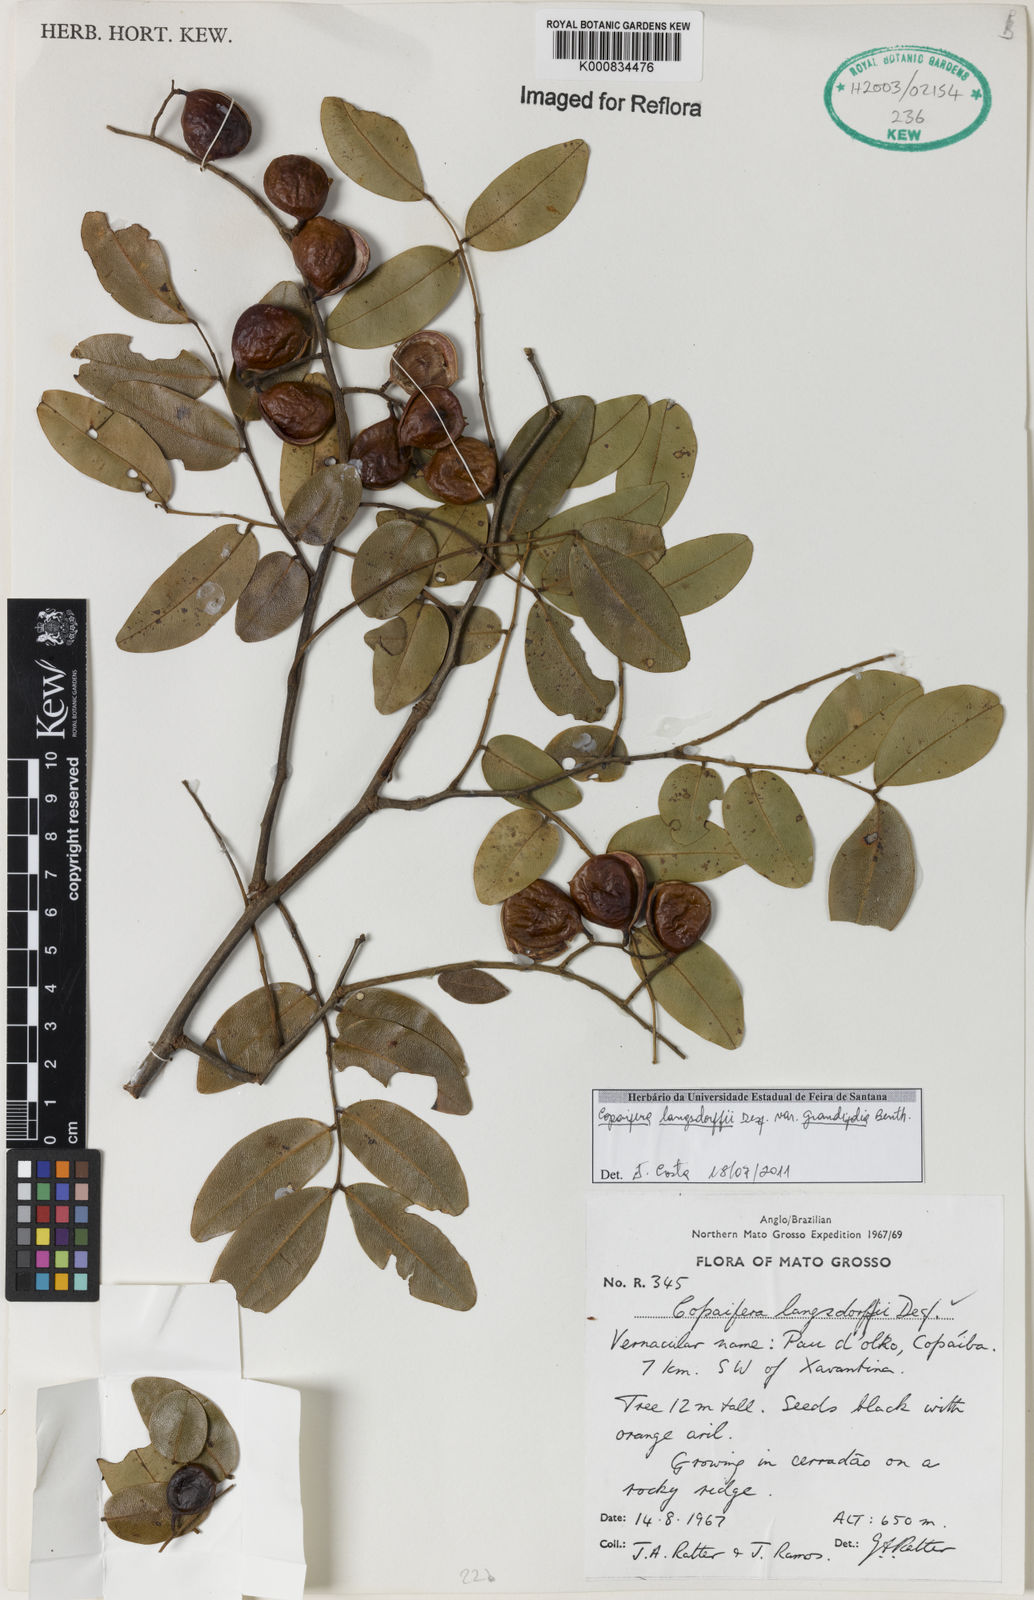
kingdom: Plantae
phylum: Tracheophyta
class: Magnoliopsida
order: Fabales
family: Fabaceae
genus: Copaifera
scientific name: Copaifera langsdorffii
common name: Brazilian diesel tree
